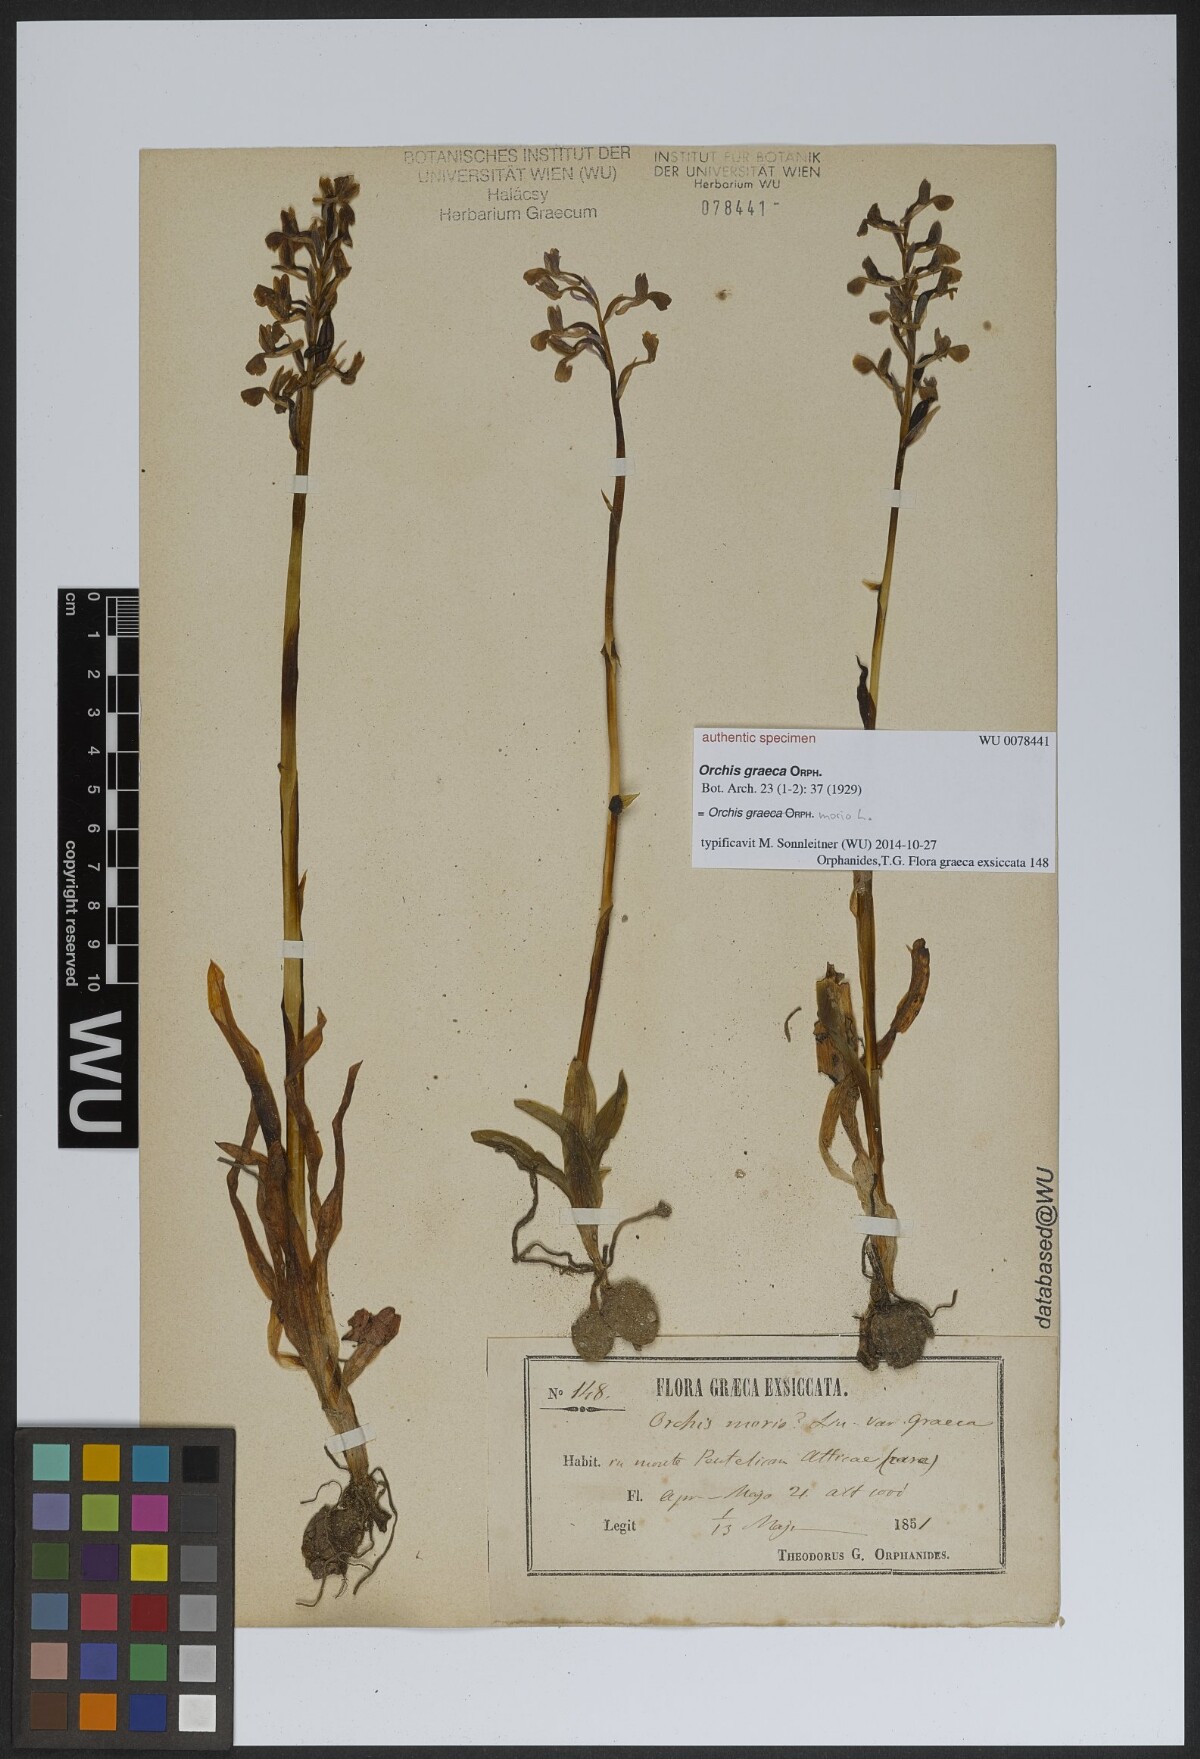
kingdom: Plantae
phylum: Tracheophyta
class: Liliopsida
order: Asparagales
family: Orchidaceae
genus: Anacamptis
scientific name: Anacamptis morio
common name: Green-winged orchid
